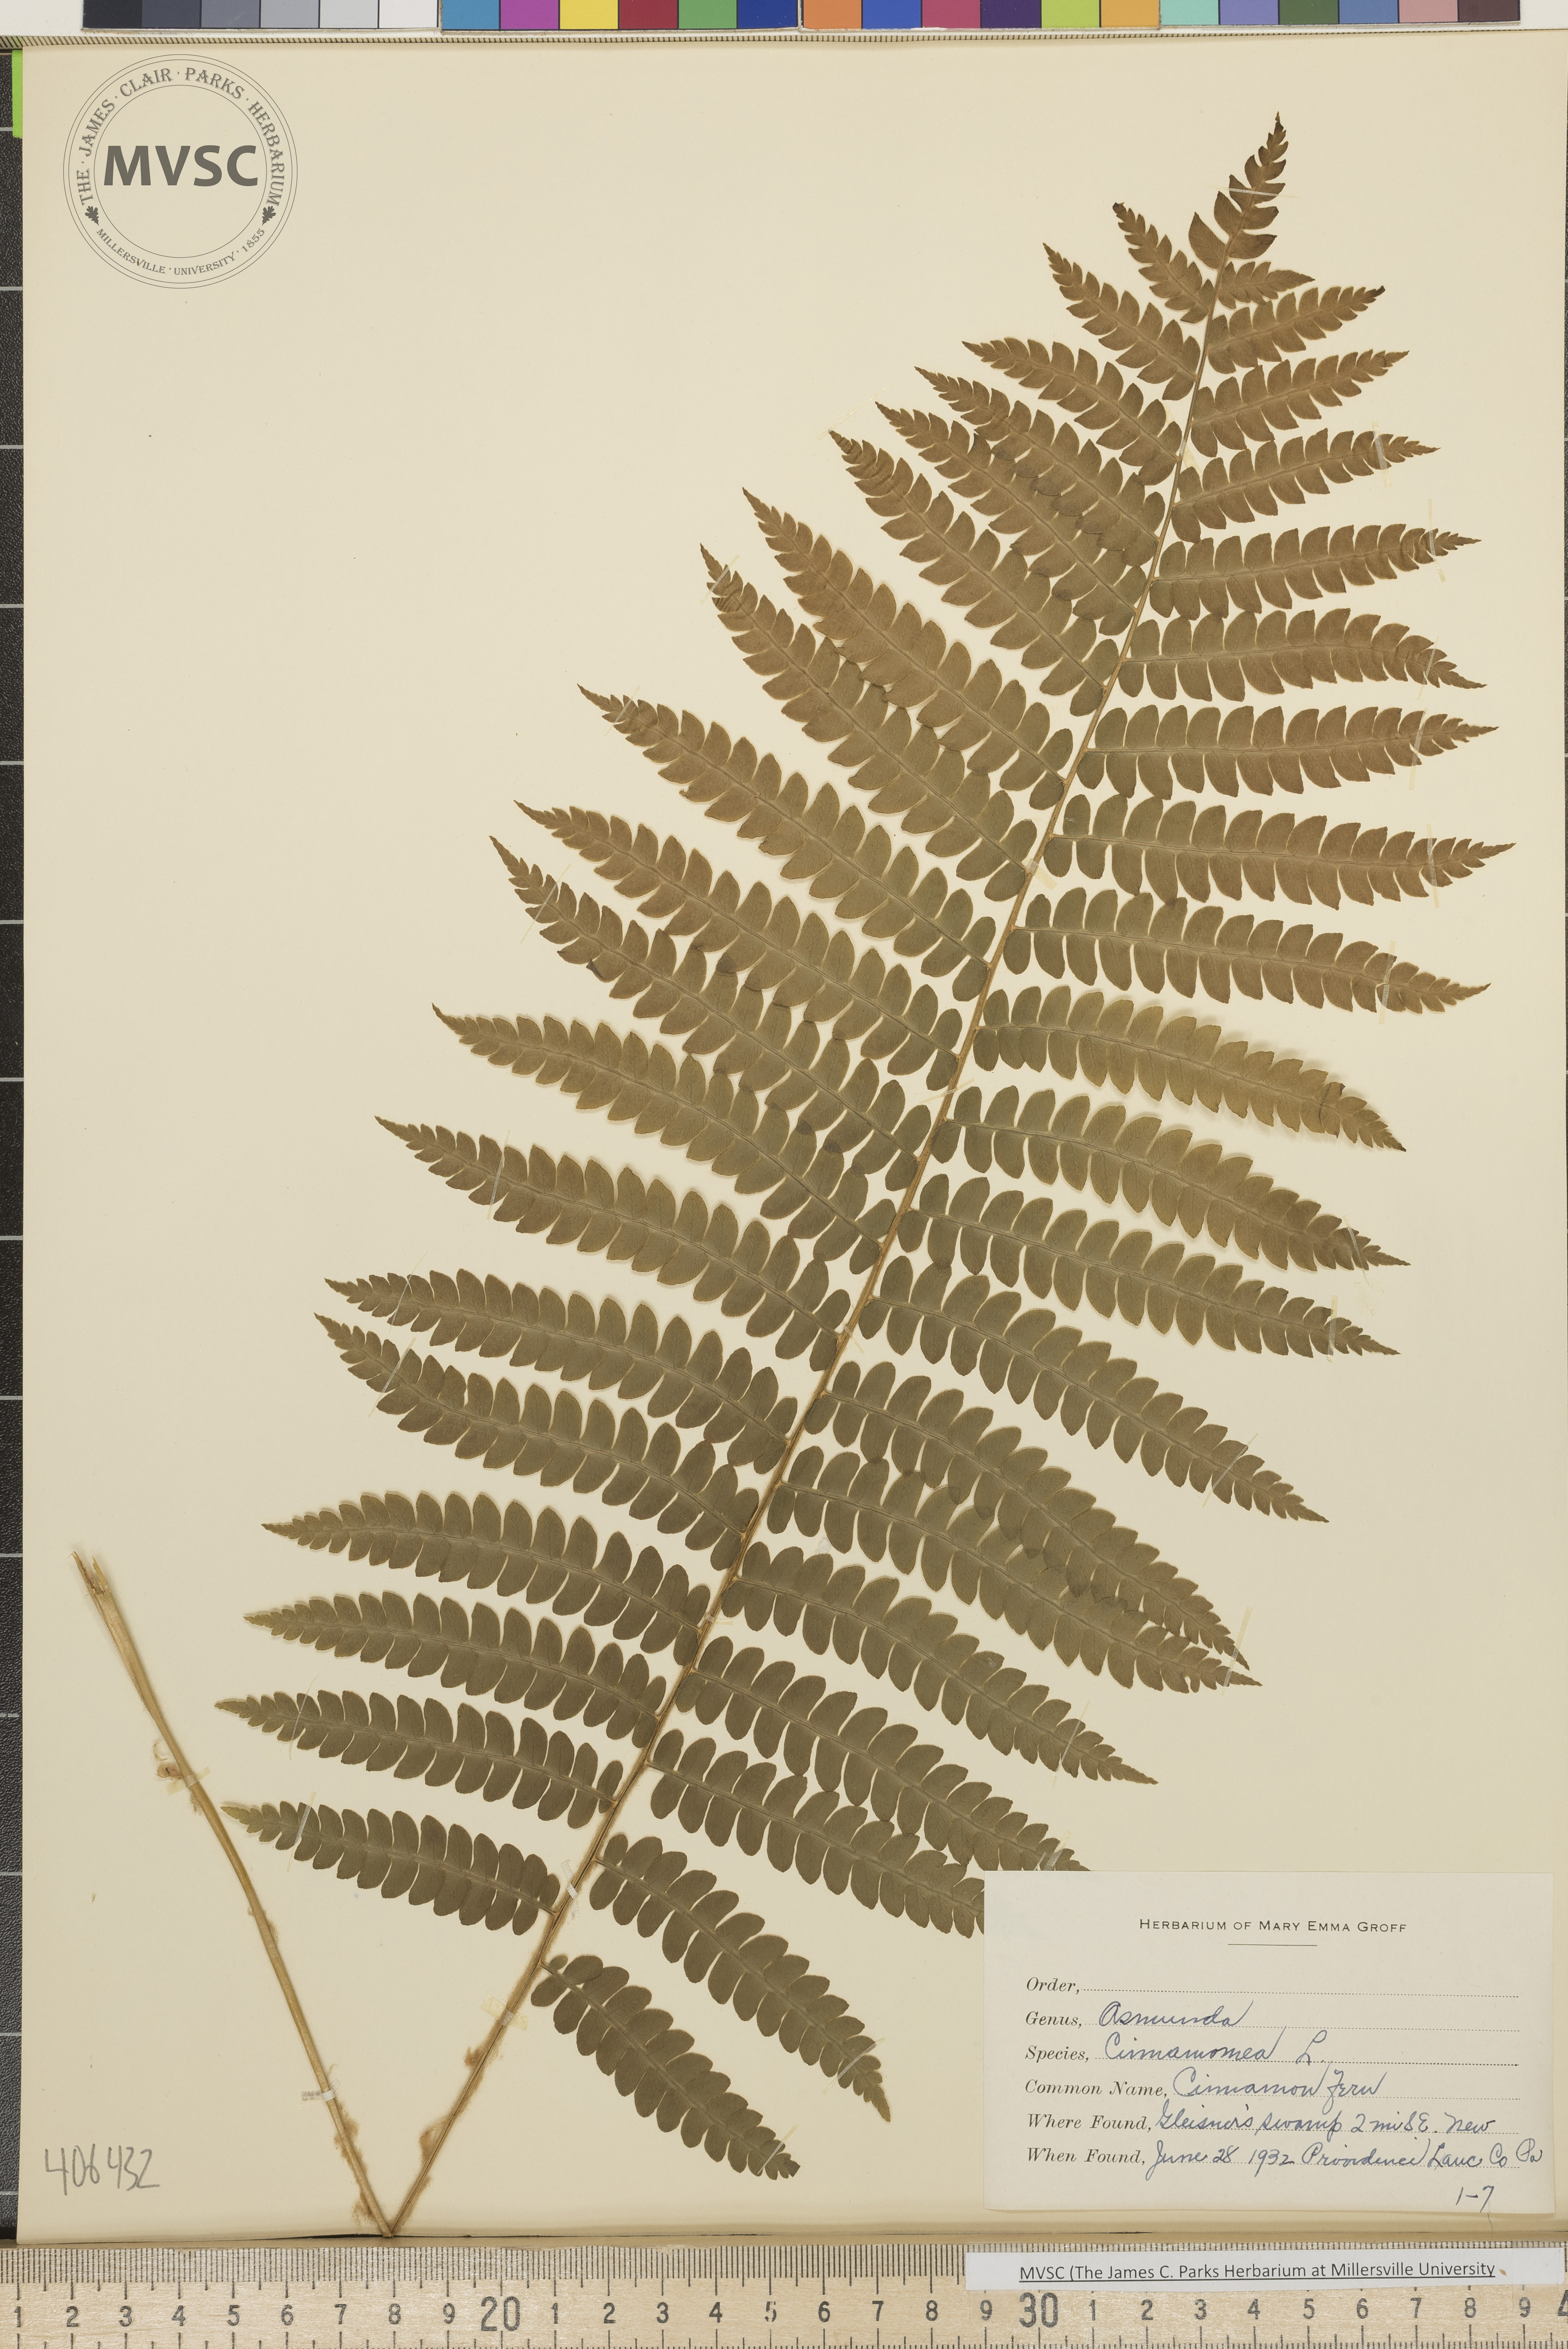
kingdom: Plantae
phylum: Tracheophyta
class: Polypodiopsida
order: Osmundales
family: Osmundaceae
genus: Osmundastrum
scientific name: Osmundastrum cinnamomeum
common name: Cinnamon fern
